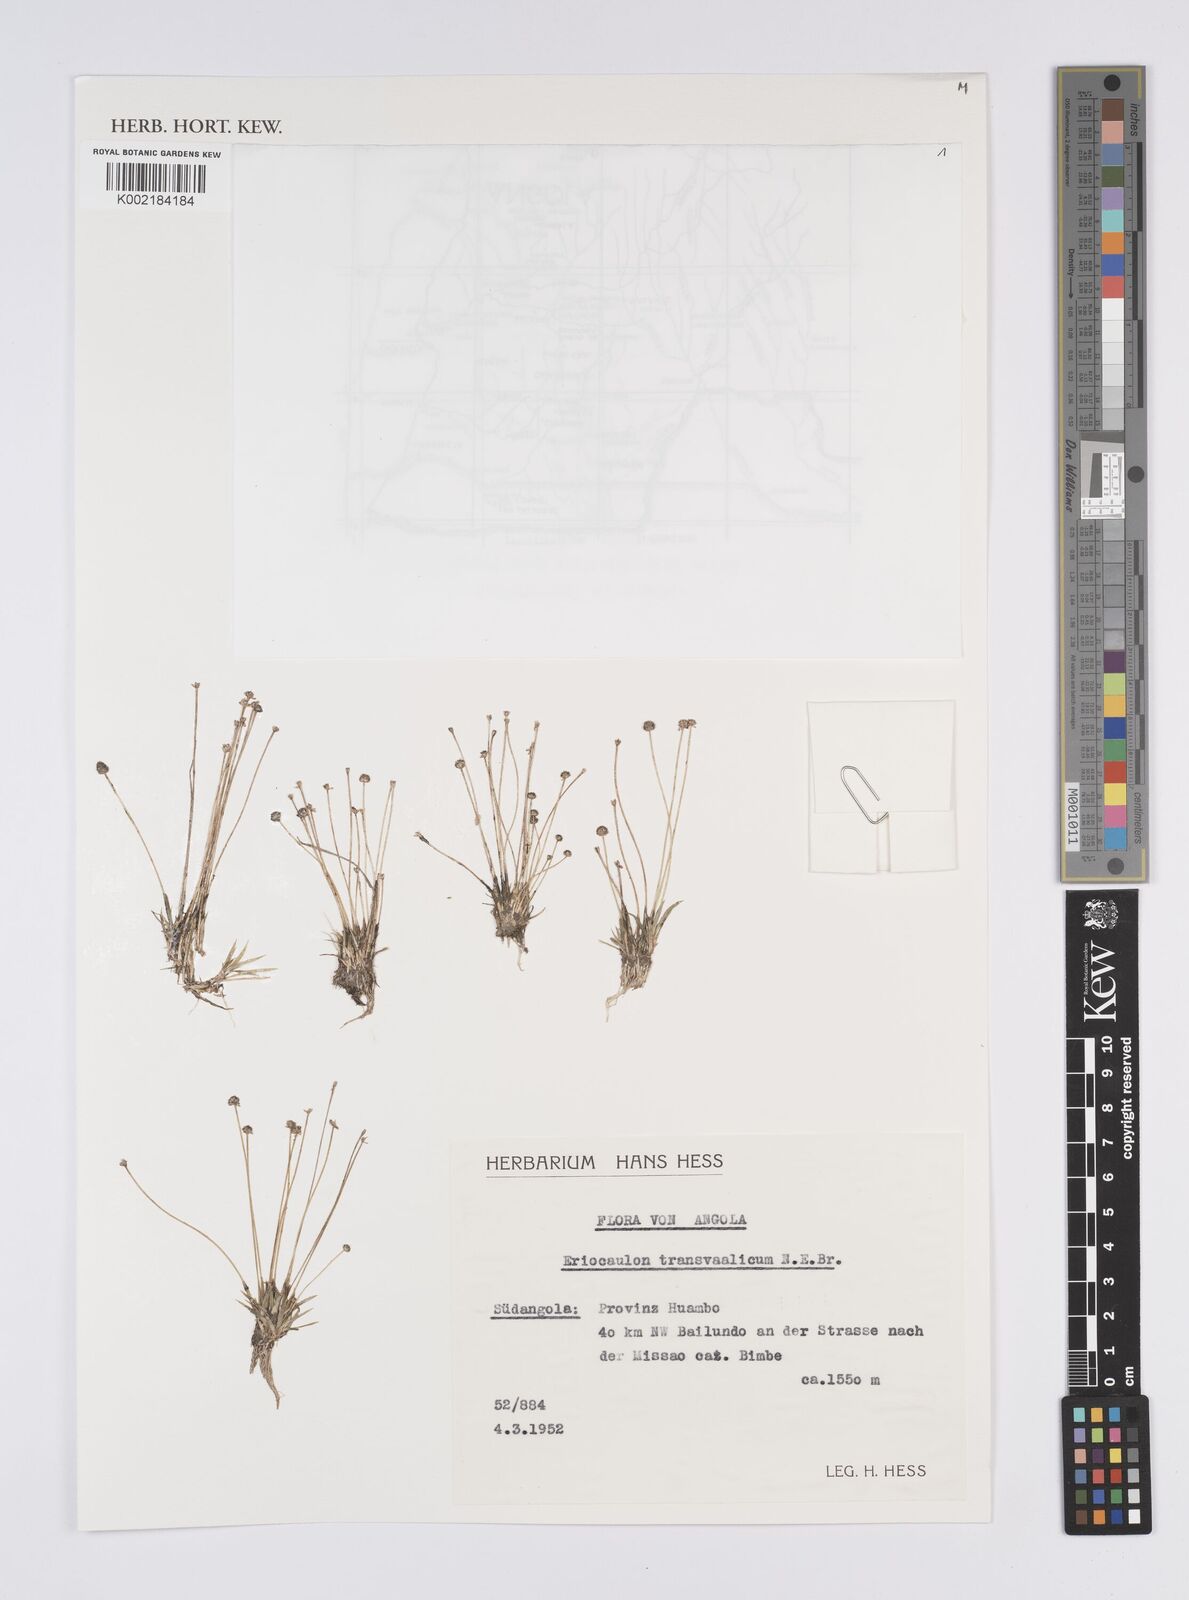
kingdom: Plantae
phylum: Tracheophyta
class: Liliopsida
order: Poales
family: Eriocaulaceae
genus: Eriocaulon
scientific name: Eriocaulon transvaalicum
